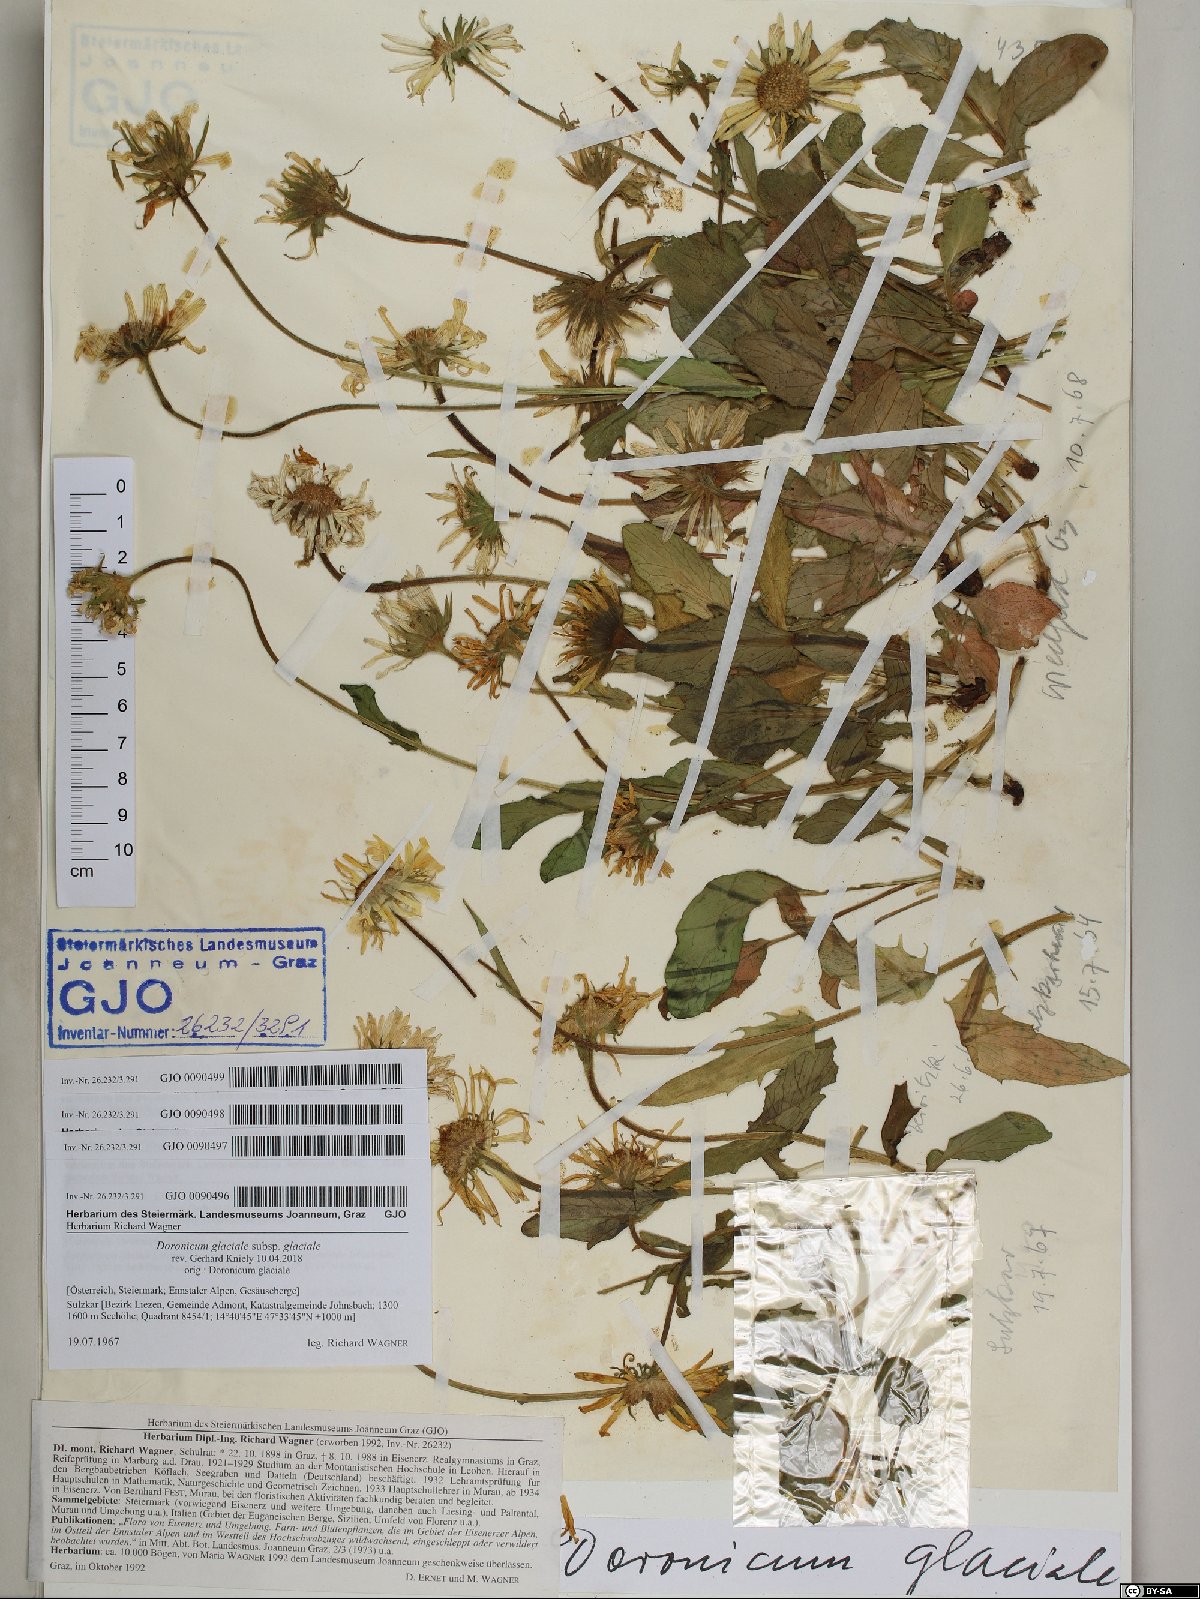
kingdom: Plantae
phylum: Tracheophyta
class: Magnoliopsida
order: Asterales
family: Asteraceae
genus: Doronicum
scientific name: Doronicum glaciale
